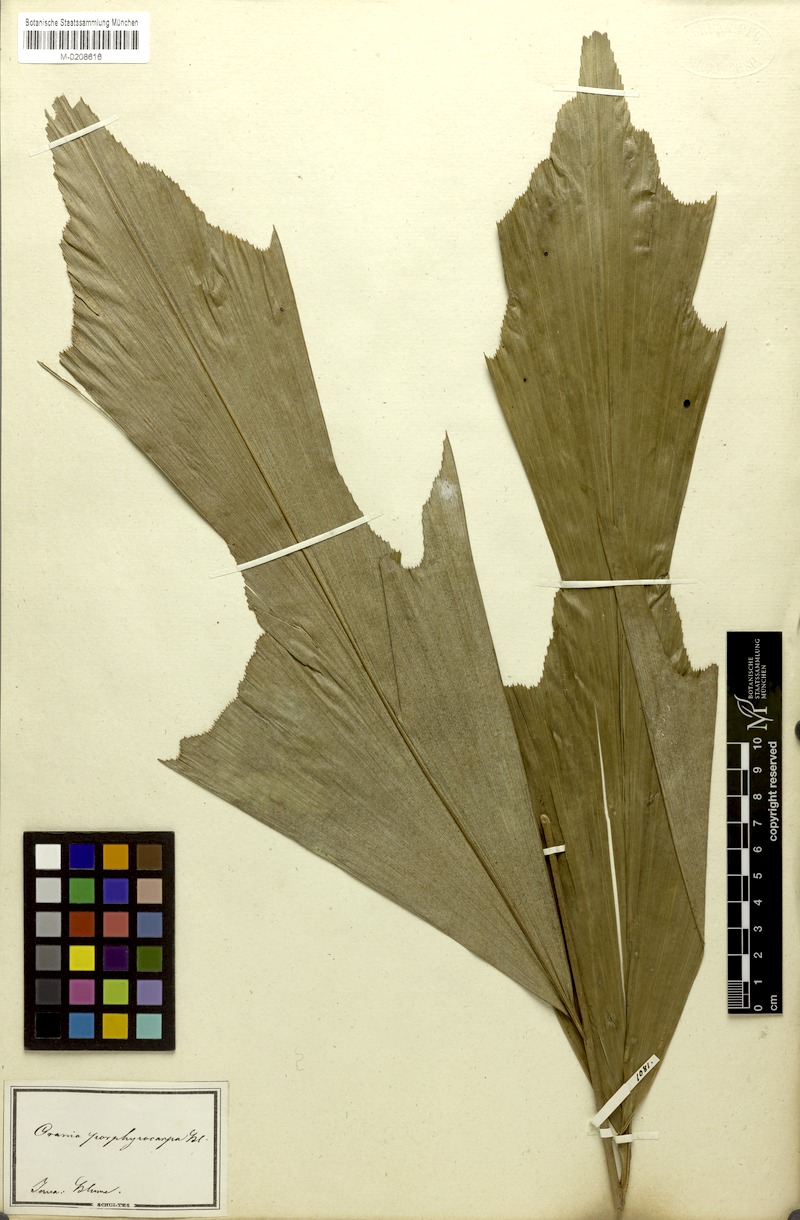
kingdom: Plantae
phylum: Tracheophyta
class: Liliopsida
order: Arecales
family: Arecaceae
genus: Arenga
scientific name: Arenga porphyrocarpa
